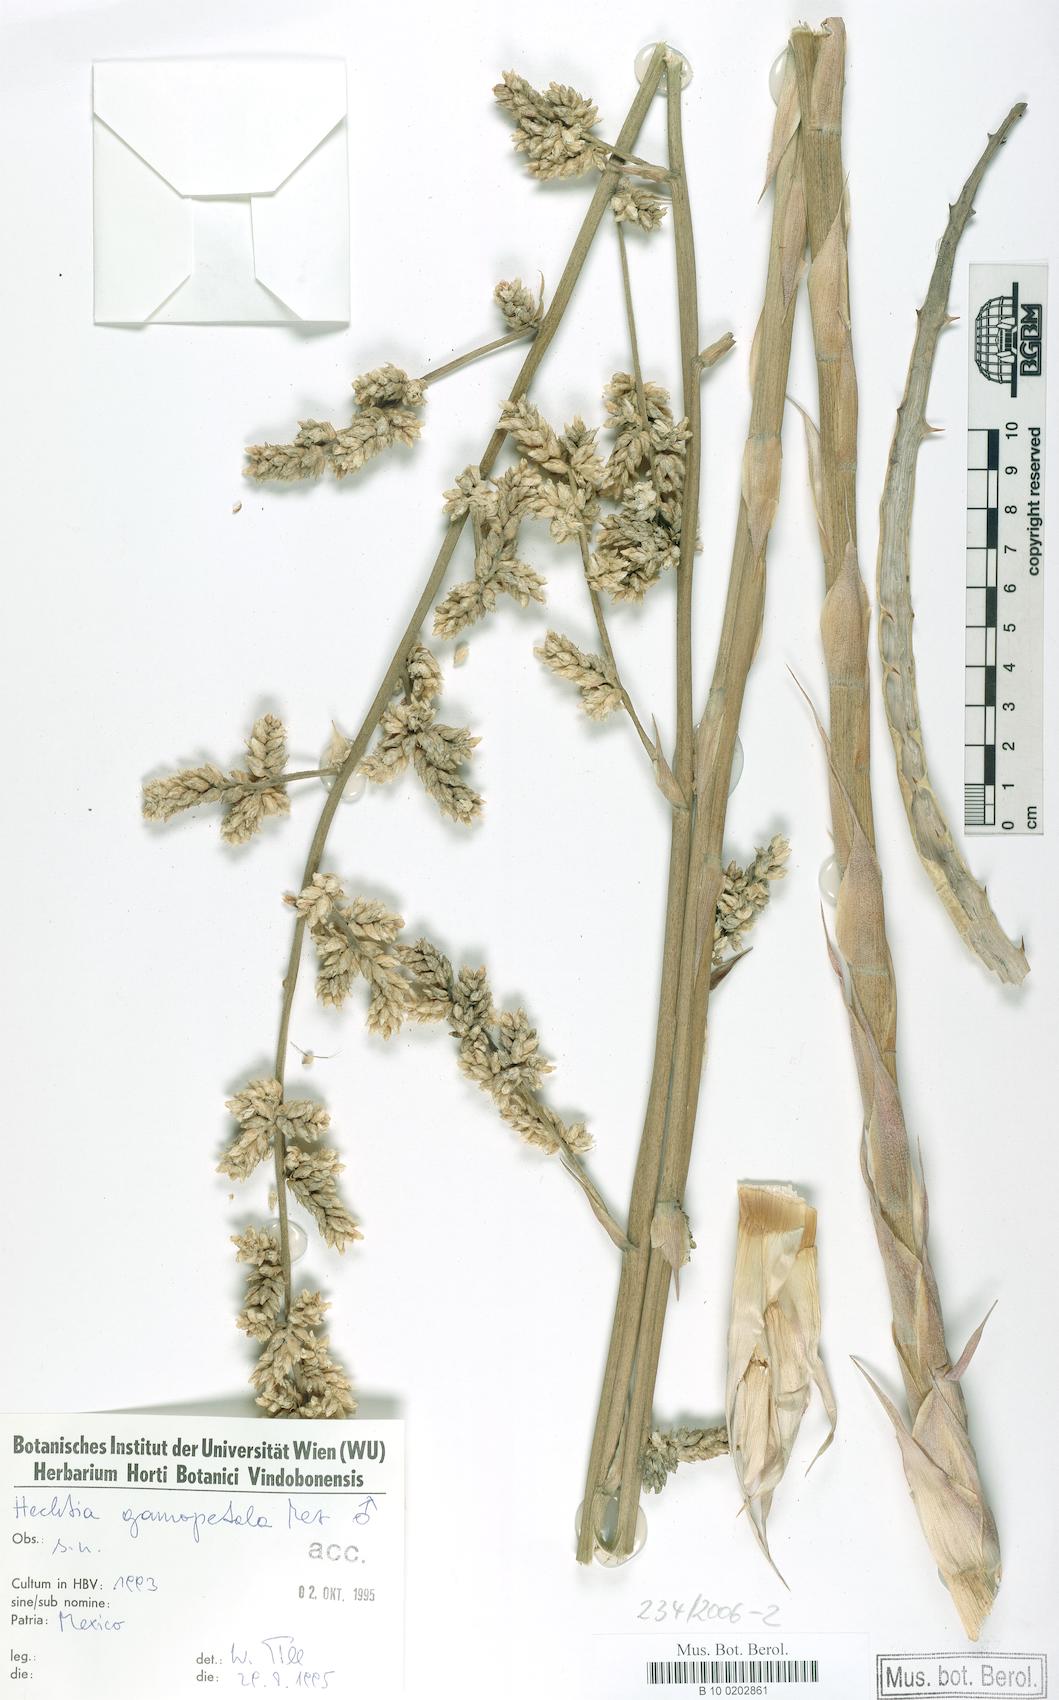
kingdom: Plantae
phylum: Tracheophyta
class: Liliopsida
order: Poales
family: Bromeliaceae
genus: Hechtia
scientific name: Hechtia glomerata
